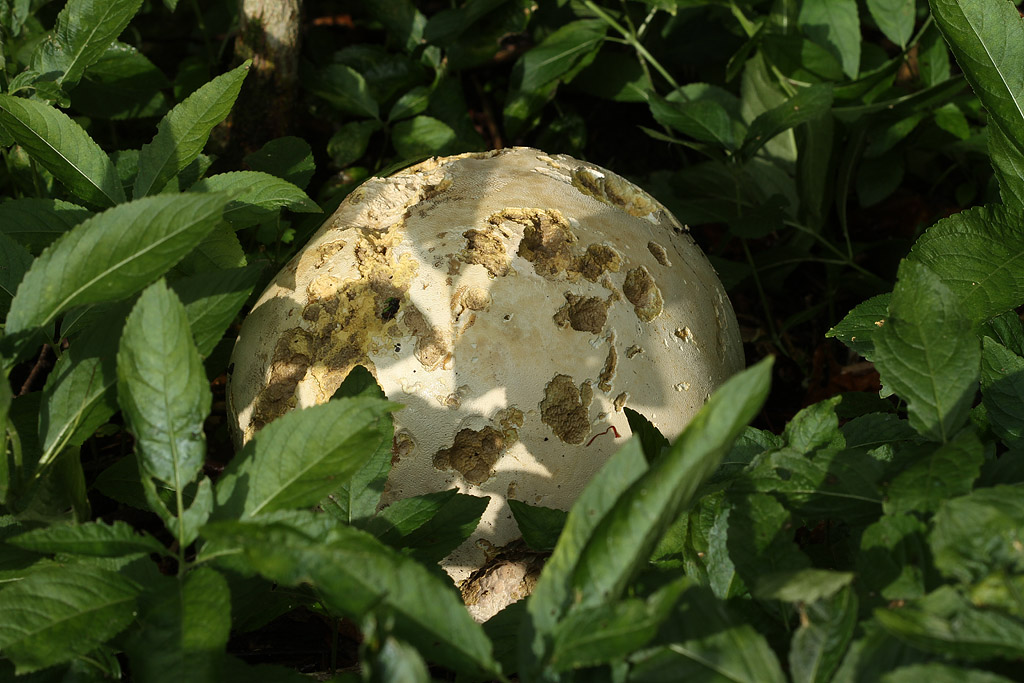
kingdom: Fungi
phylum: Basidiomycota
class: Agaricomycetes
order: Agaricales
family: Lycoperdaceae
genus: Calvatia
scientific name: Calvatia gigantea
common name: kæmpestøvbold
